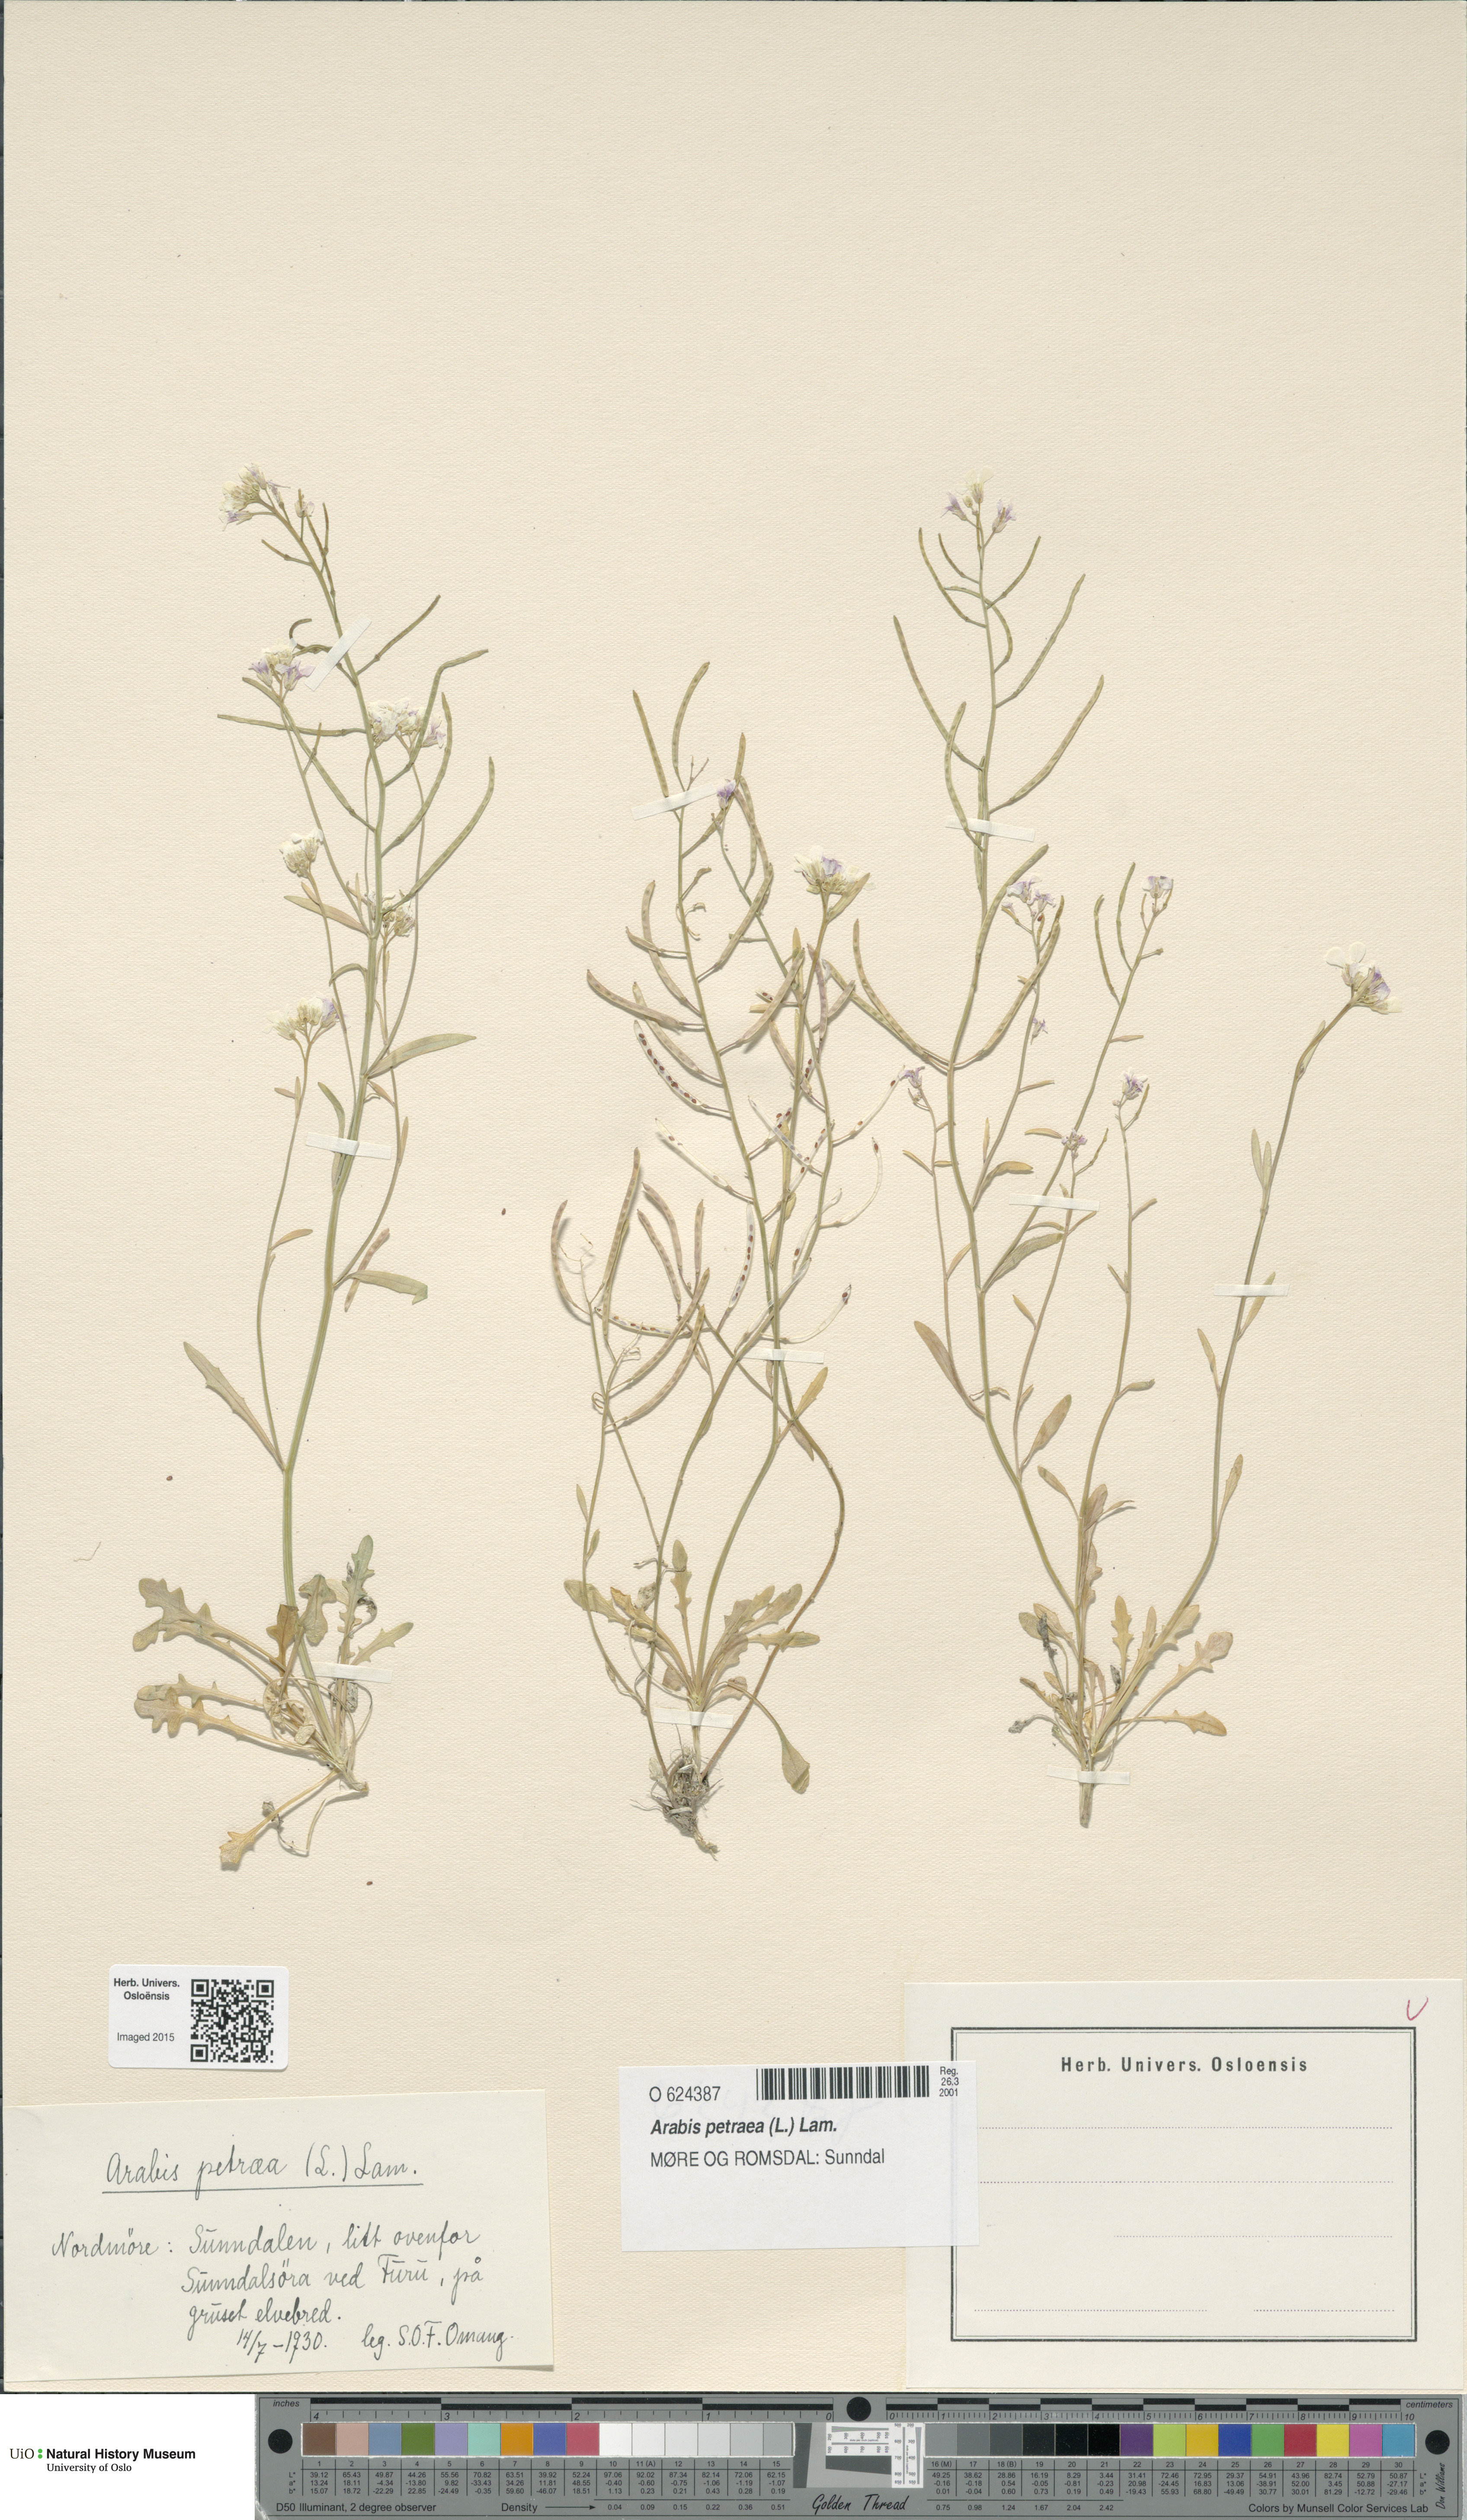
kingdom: Plantae
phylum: Tracheophyta
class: Magnoliopsida
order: Brassicales
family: Brassicaceae
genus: Arabidopsis
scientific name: Arabidopsis petraea
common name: Northern rock-cress
